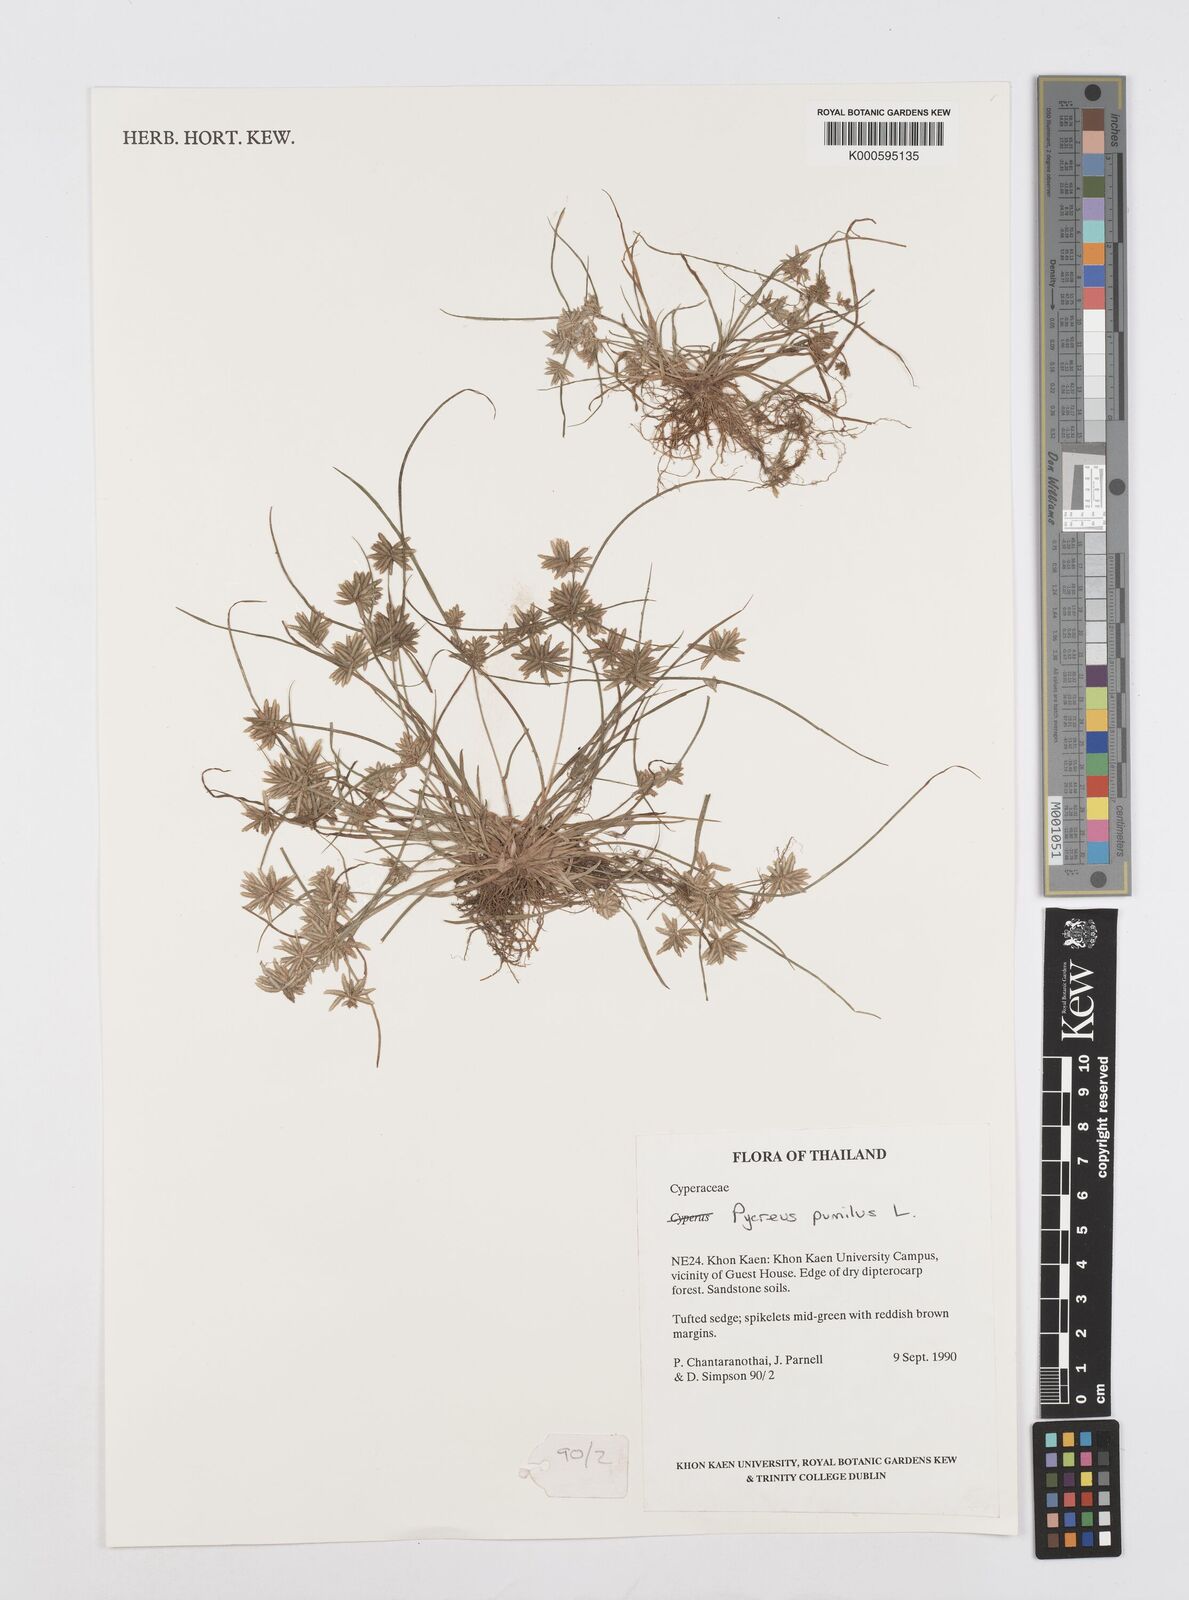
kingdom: Plantae
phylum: Tracheophyta
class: Liliopsida
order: Poales
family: Cyperaceae
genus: Cyperus
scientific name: Cyperus pumilus
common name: Low flatsedge
